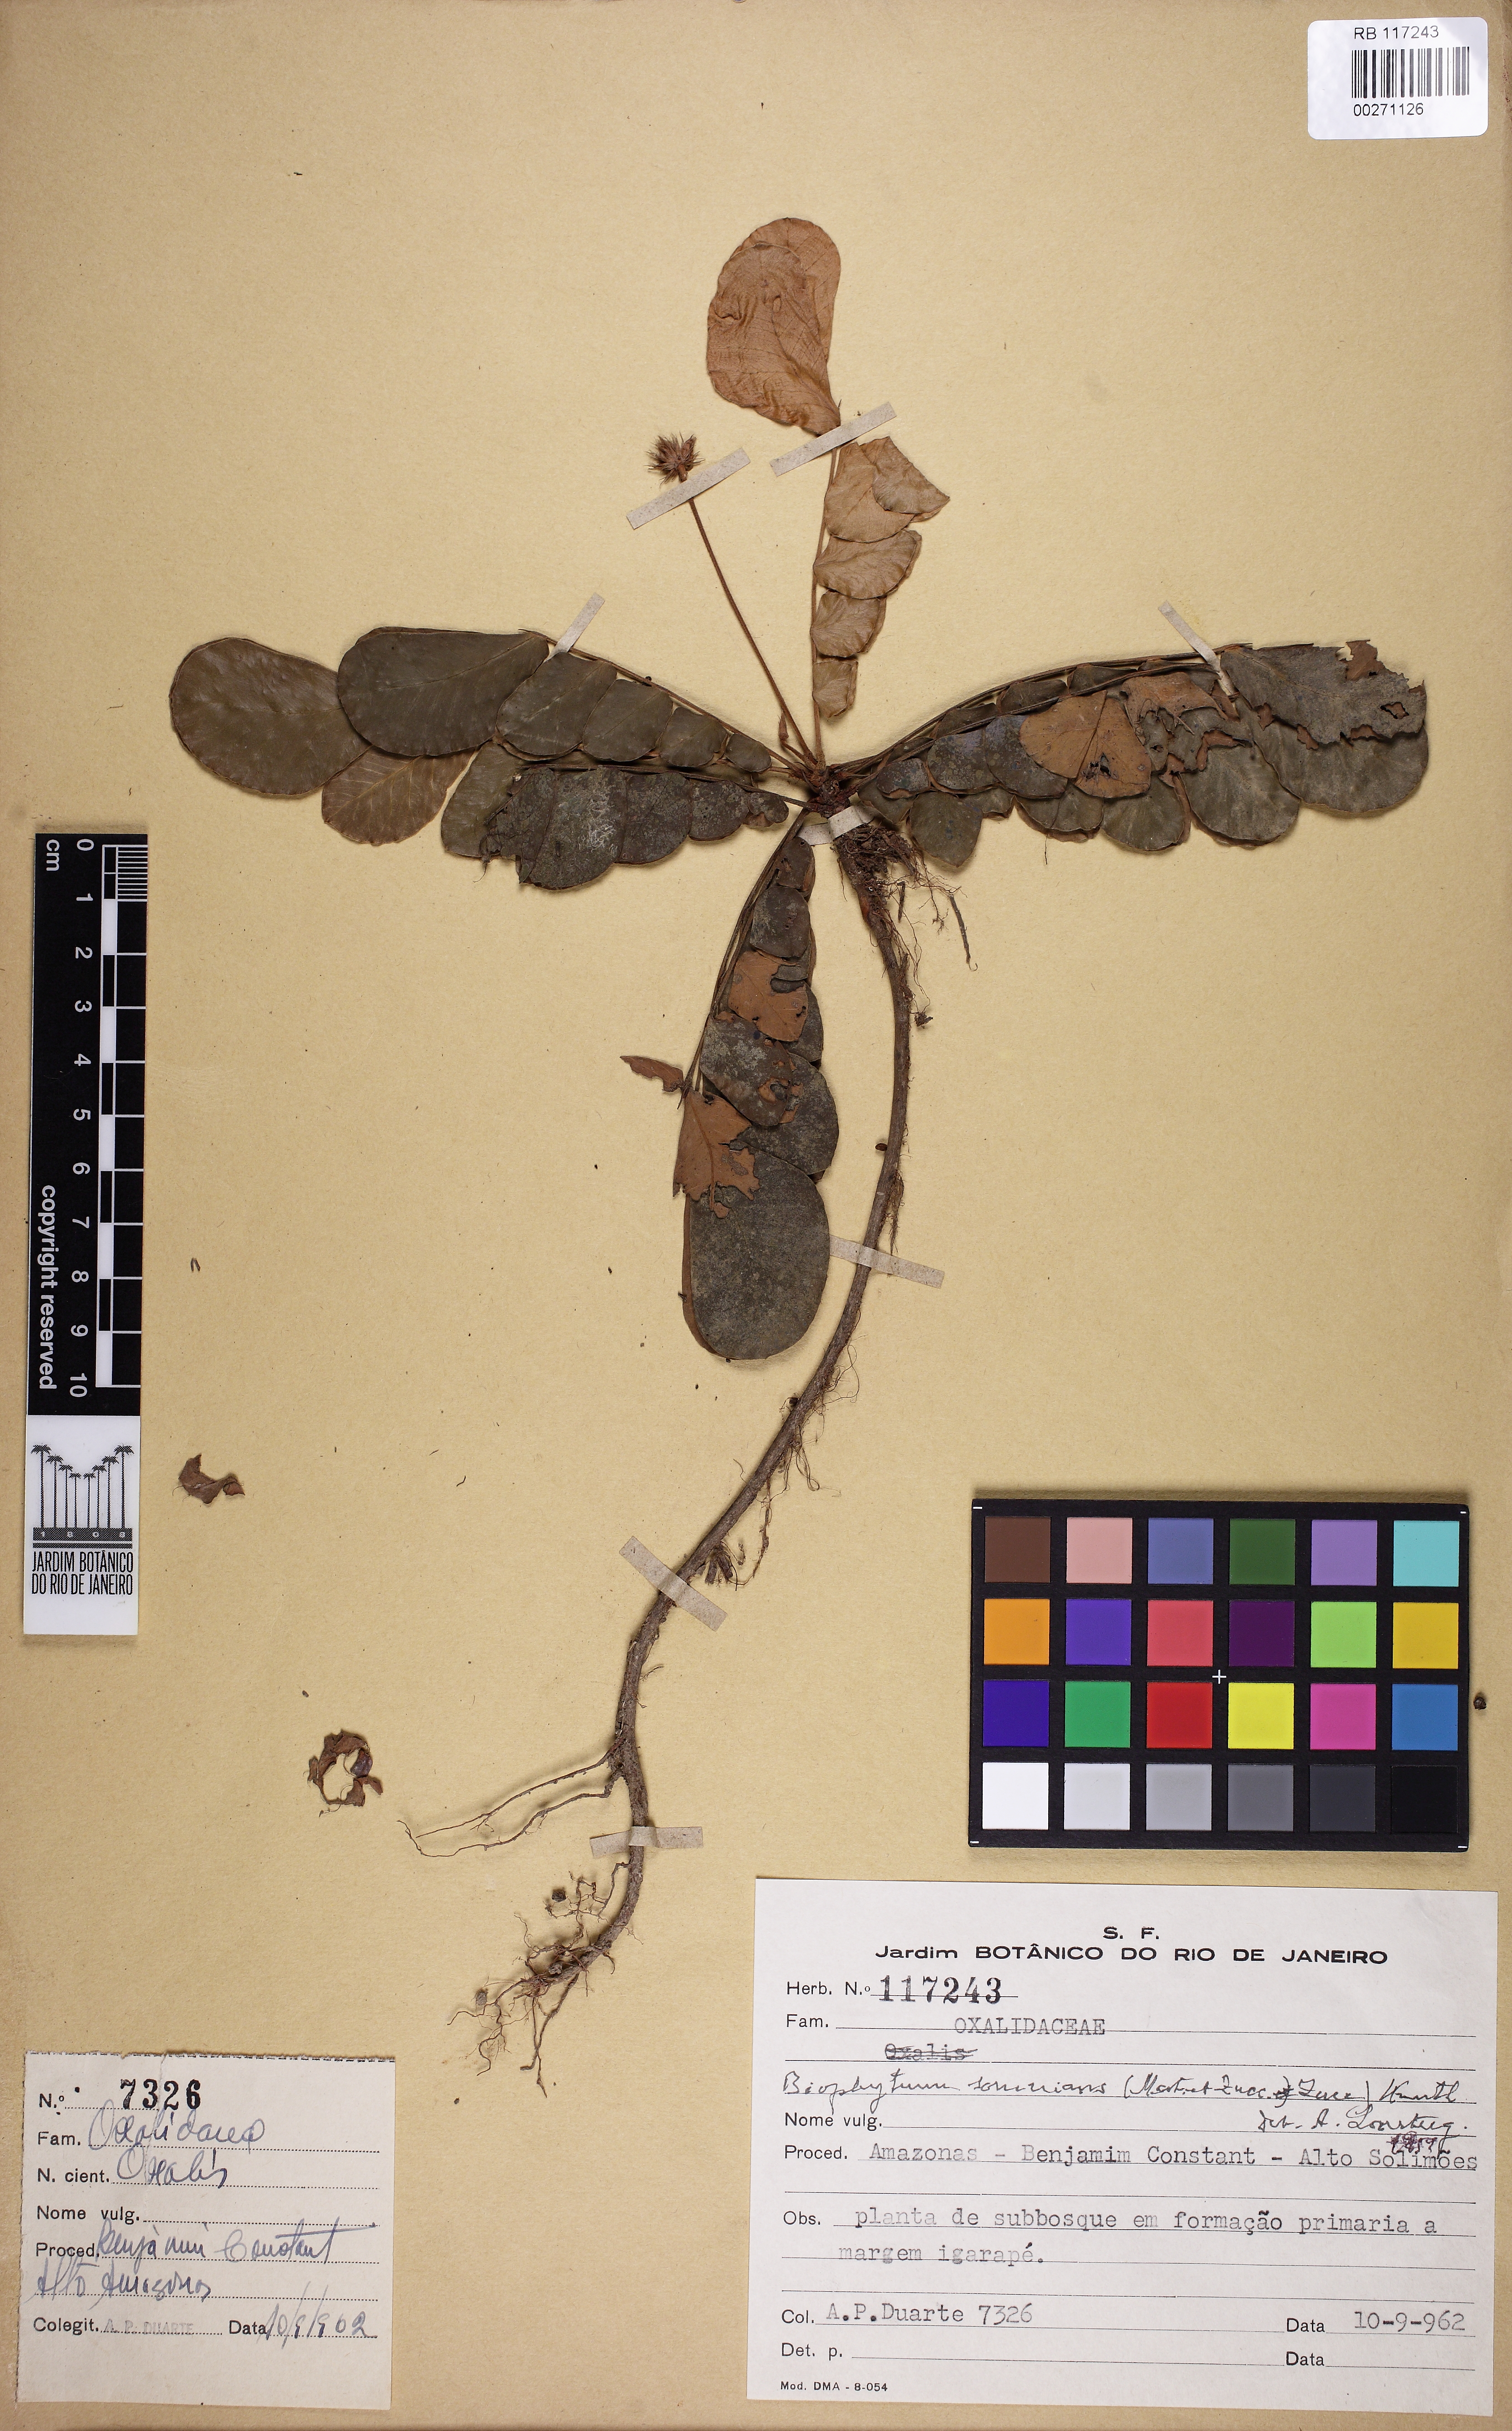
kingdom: Plantae
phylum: Tracheophyta
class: Magnoliopsida
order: Oxalidales
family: Oxalidaceae
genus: Biophytum
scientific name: Biophytum somnians
